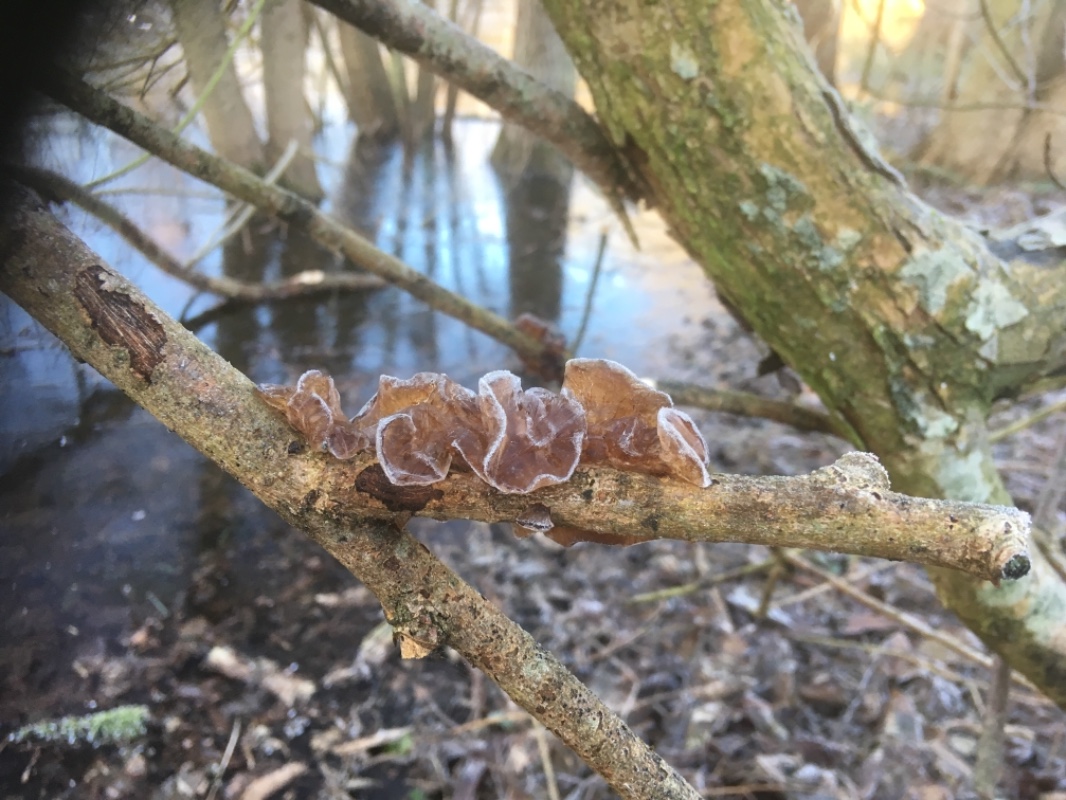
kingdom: Fungi
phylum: Basidiomycota
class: Agaricomycetes
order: Auriculariales
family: Auriculariaceae
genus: Exidia
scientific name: Exidia recisa
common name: pile-bævretop
